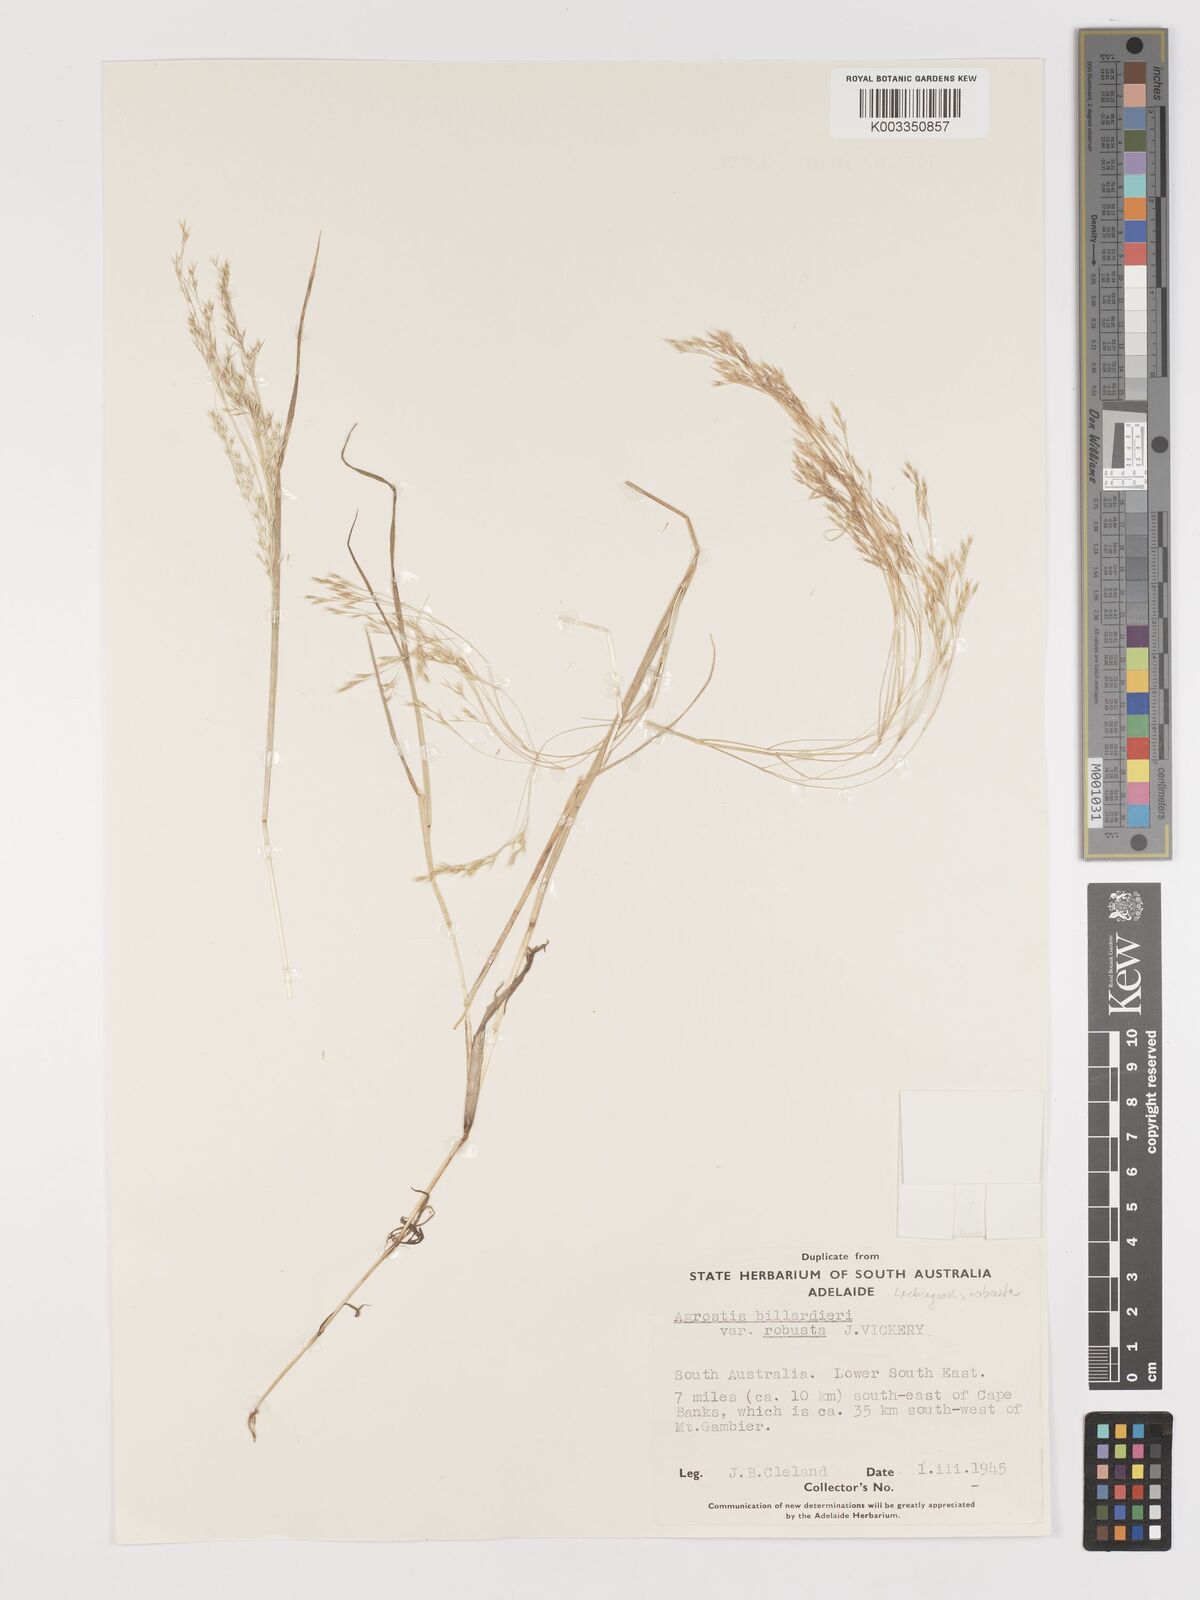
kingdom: Plantae
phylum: Tracheophyta
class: Liliopsida
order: Poales
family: Poaceae
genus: Lachnagrostis
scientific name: Lachnagrostis robusta
